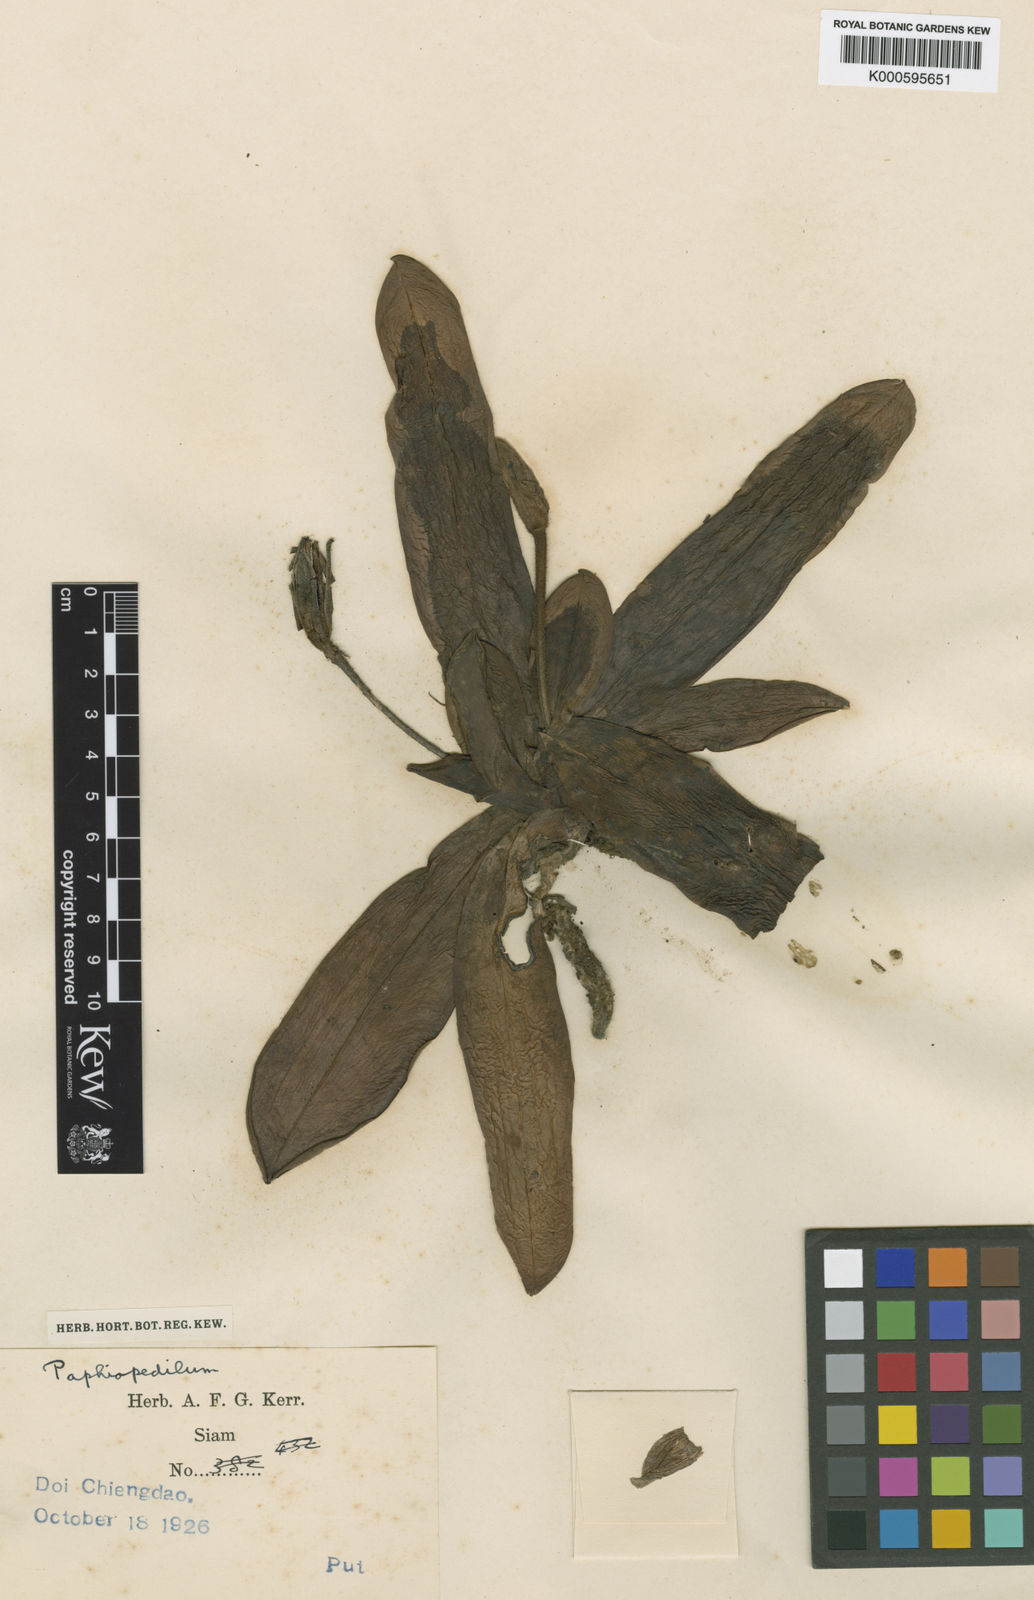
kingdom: Plantae
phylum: Tracheophyta
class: Liliopsida
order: Asparagales
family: Orchidaceae
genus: Paphiopedilum
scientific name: Paphiopedilum
